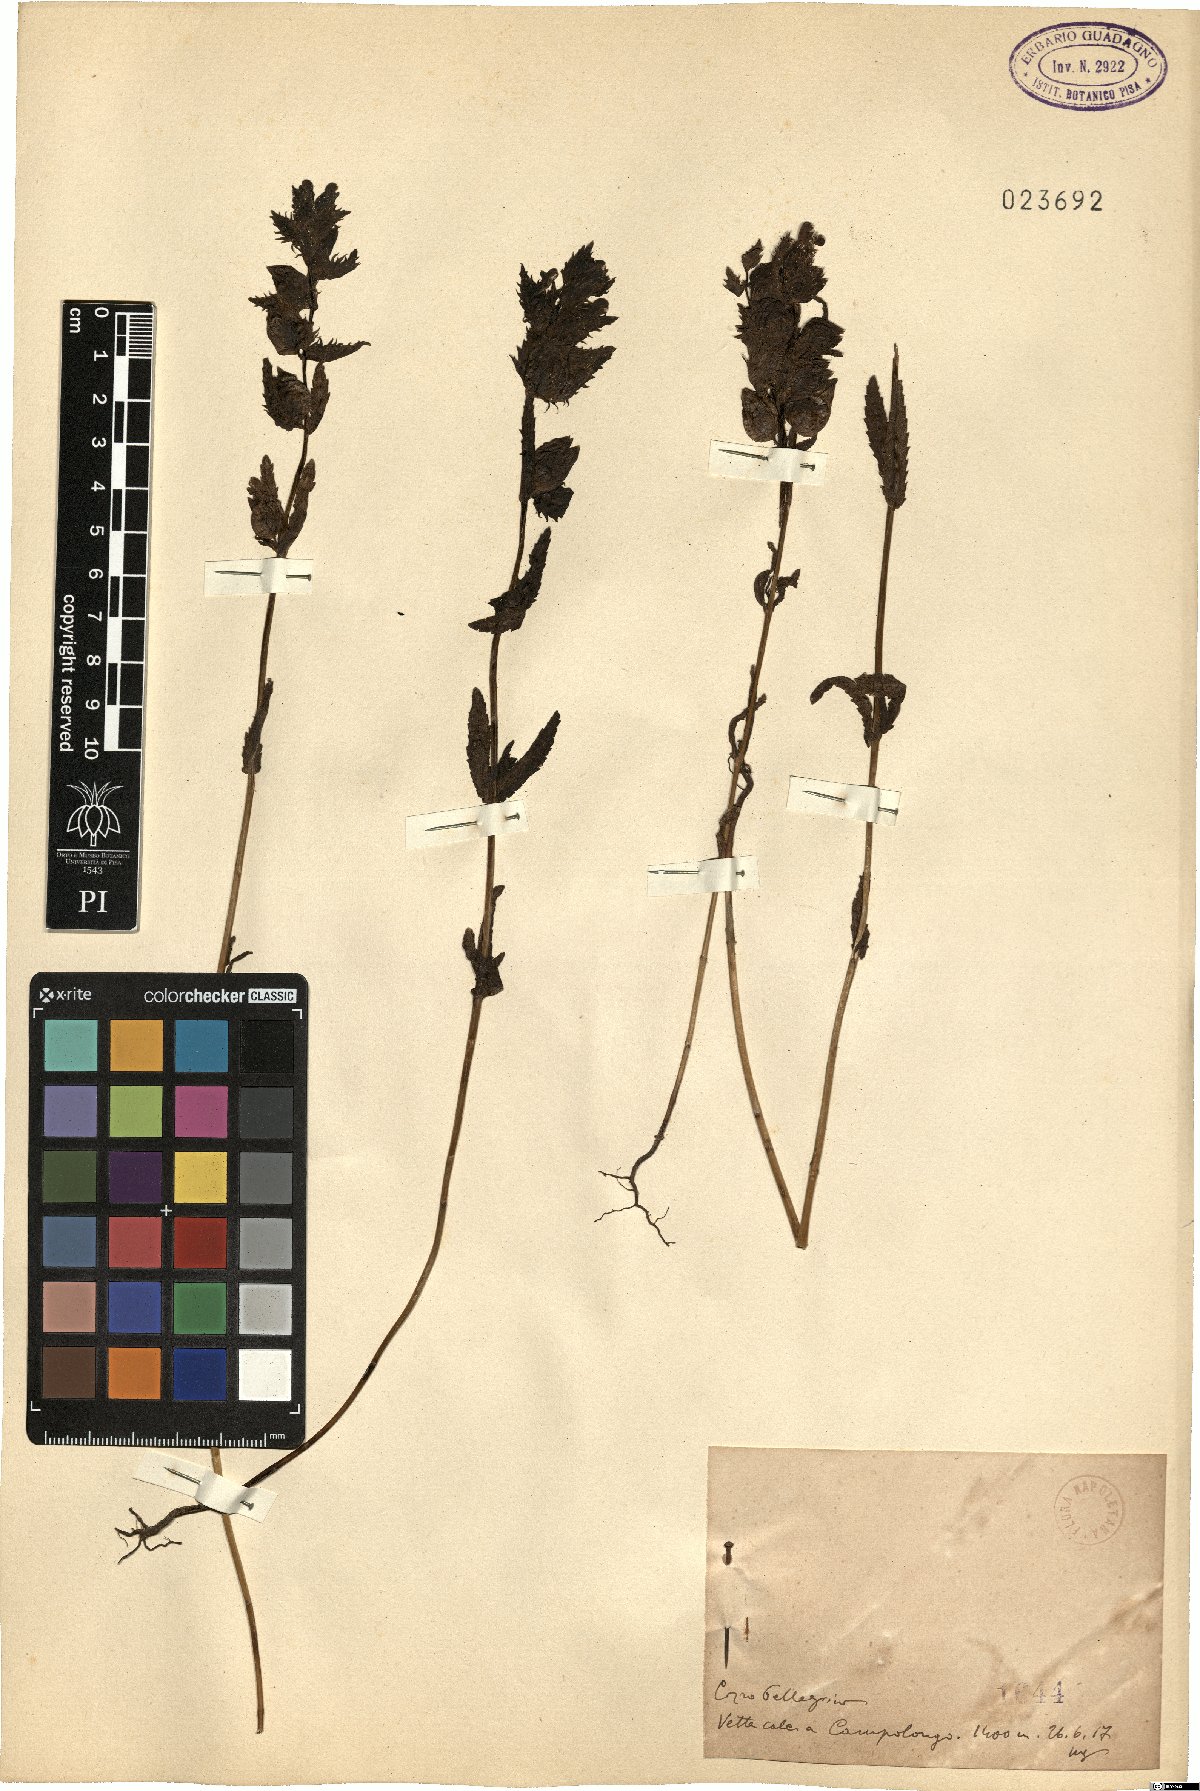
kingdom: Plantae
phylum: Tracheophyta
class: Magnoliopsida
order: Lamiales
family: Orobanchaceae
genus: Rhinanthus
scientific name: Rhinanthus
